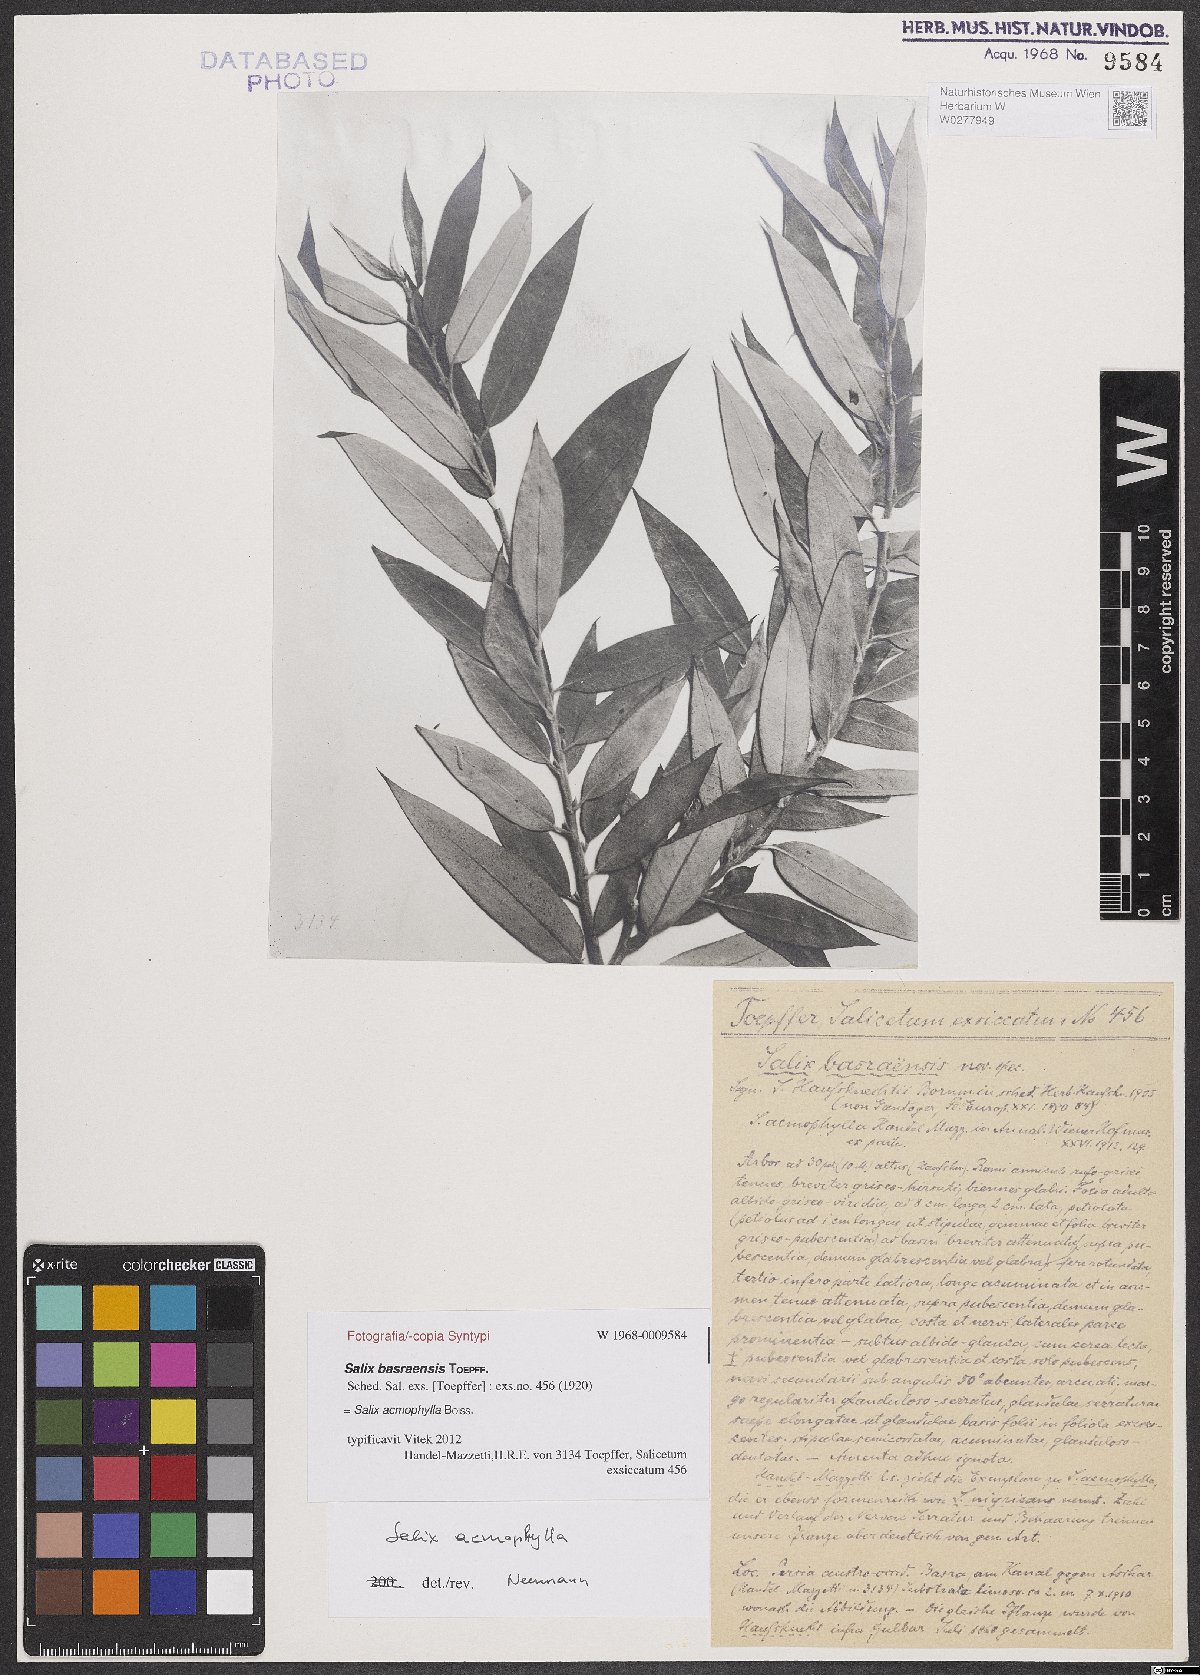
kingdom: Plantae
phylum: Tracheophyta
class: Magnoliopsida
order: Malpighiales
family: Salicaceae
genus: Salix
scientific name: Salix acmophylla
